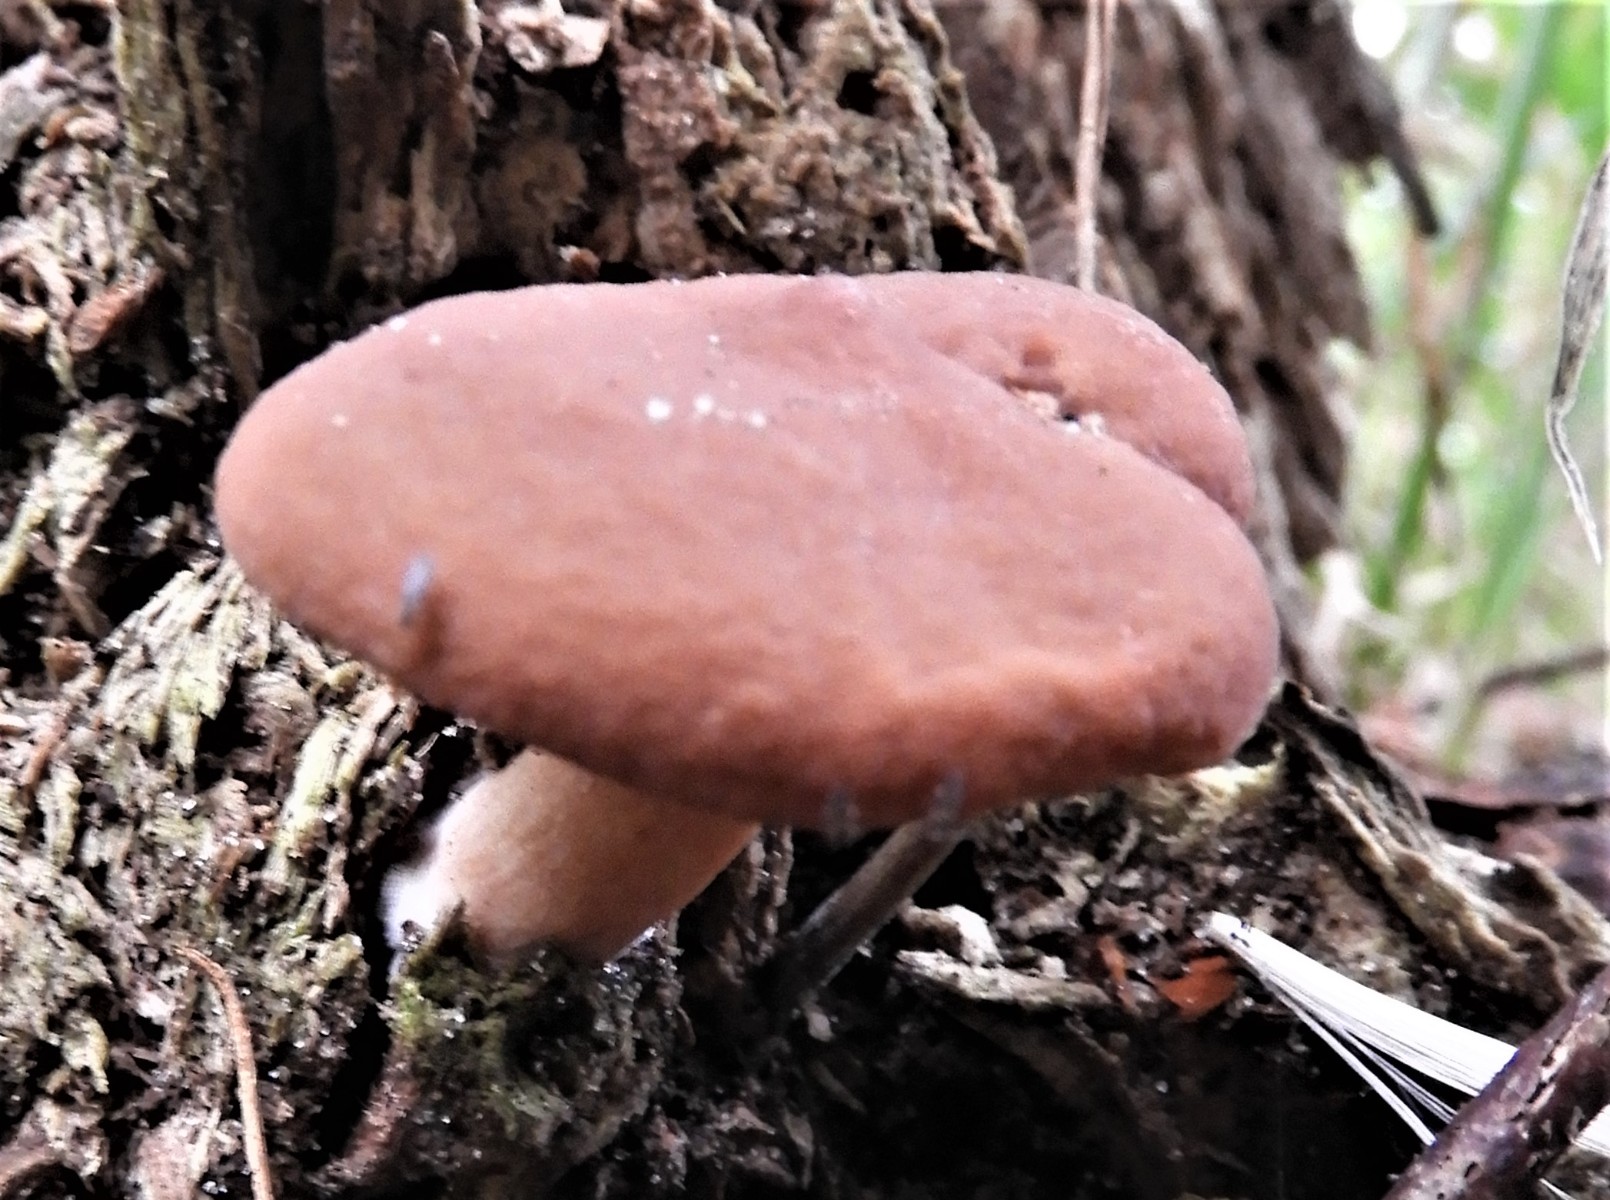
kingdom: Fungi
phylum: Basidiomycota
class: Agaricomycetes
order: Russulales
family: Russulaceae
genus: Lactarius
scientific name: Lactarius subdulcis
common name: sødlig mælkehat
